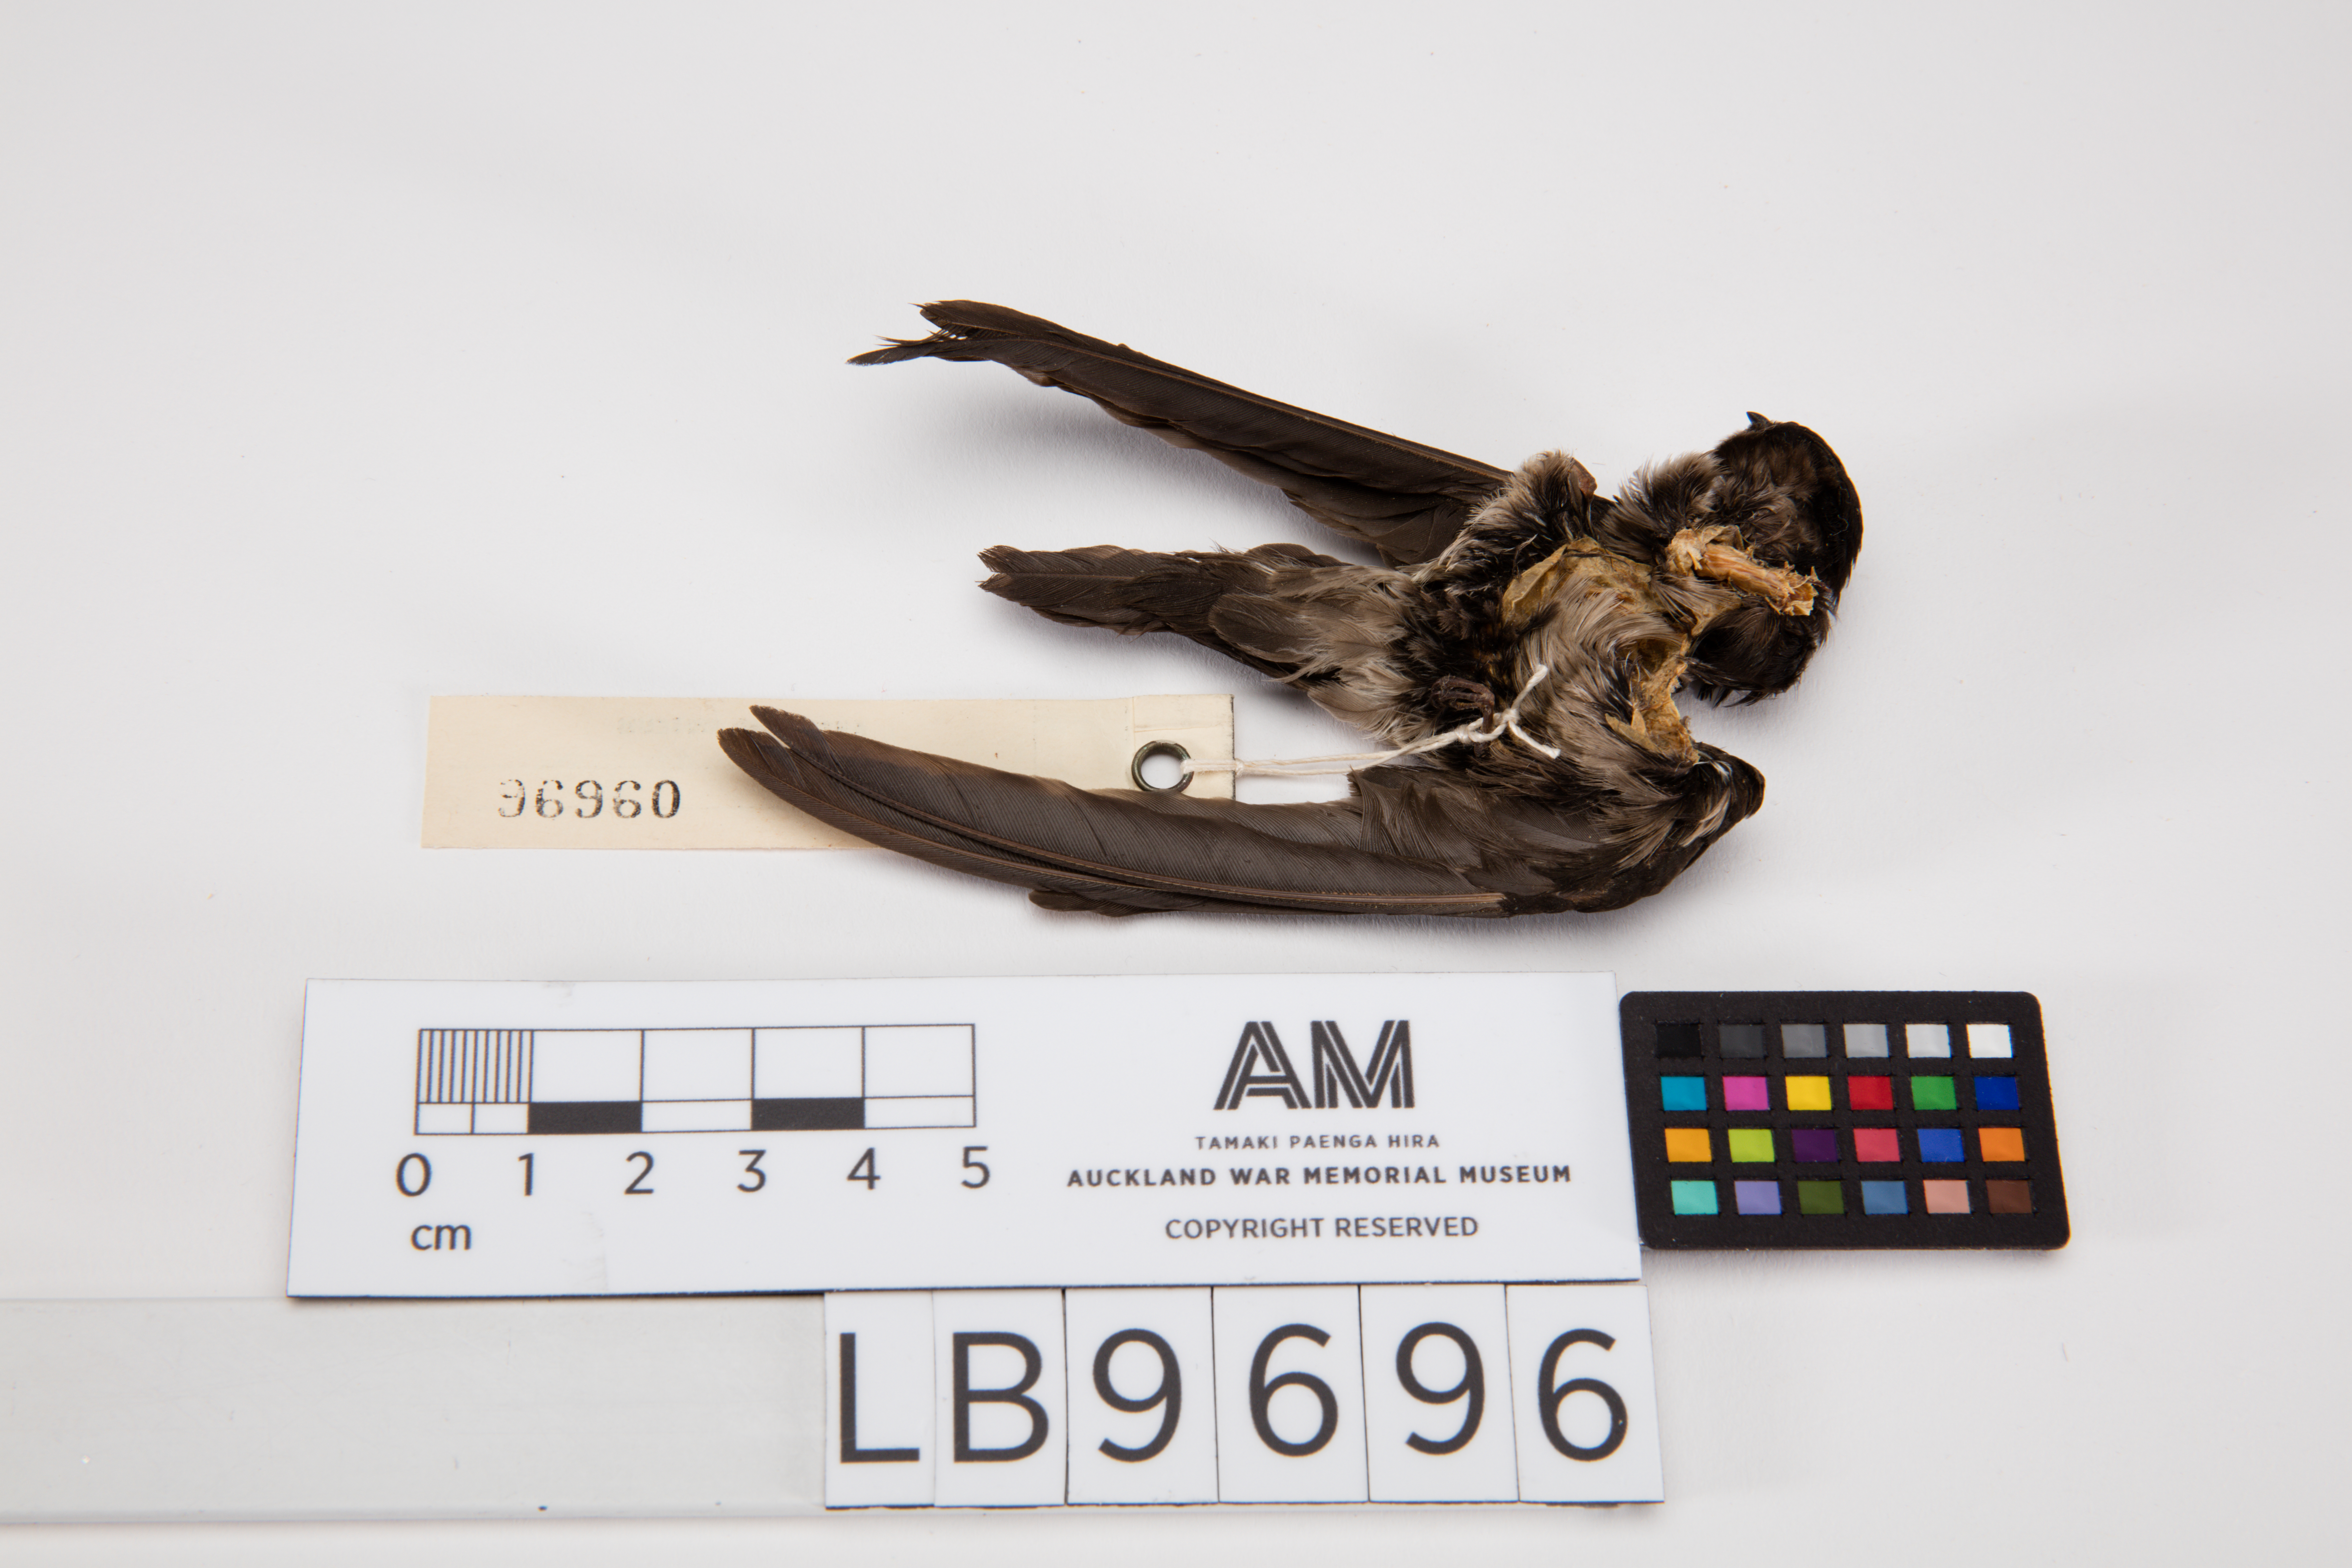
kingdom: Animalia
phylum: Chordata
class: Aves
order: Apodiformes
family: Apodidae
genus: Aerodramus
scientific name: Aerodramus spodiopygius
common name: White-rumped swiftlet
